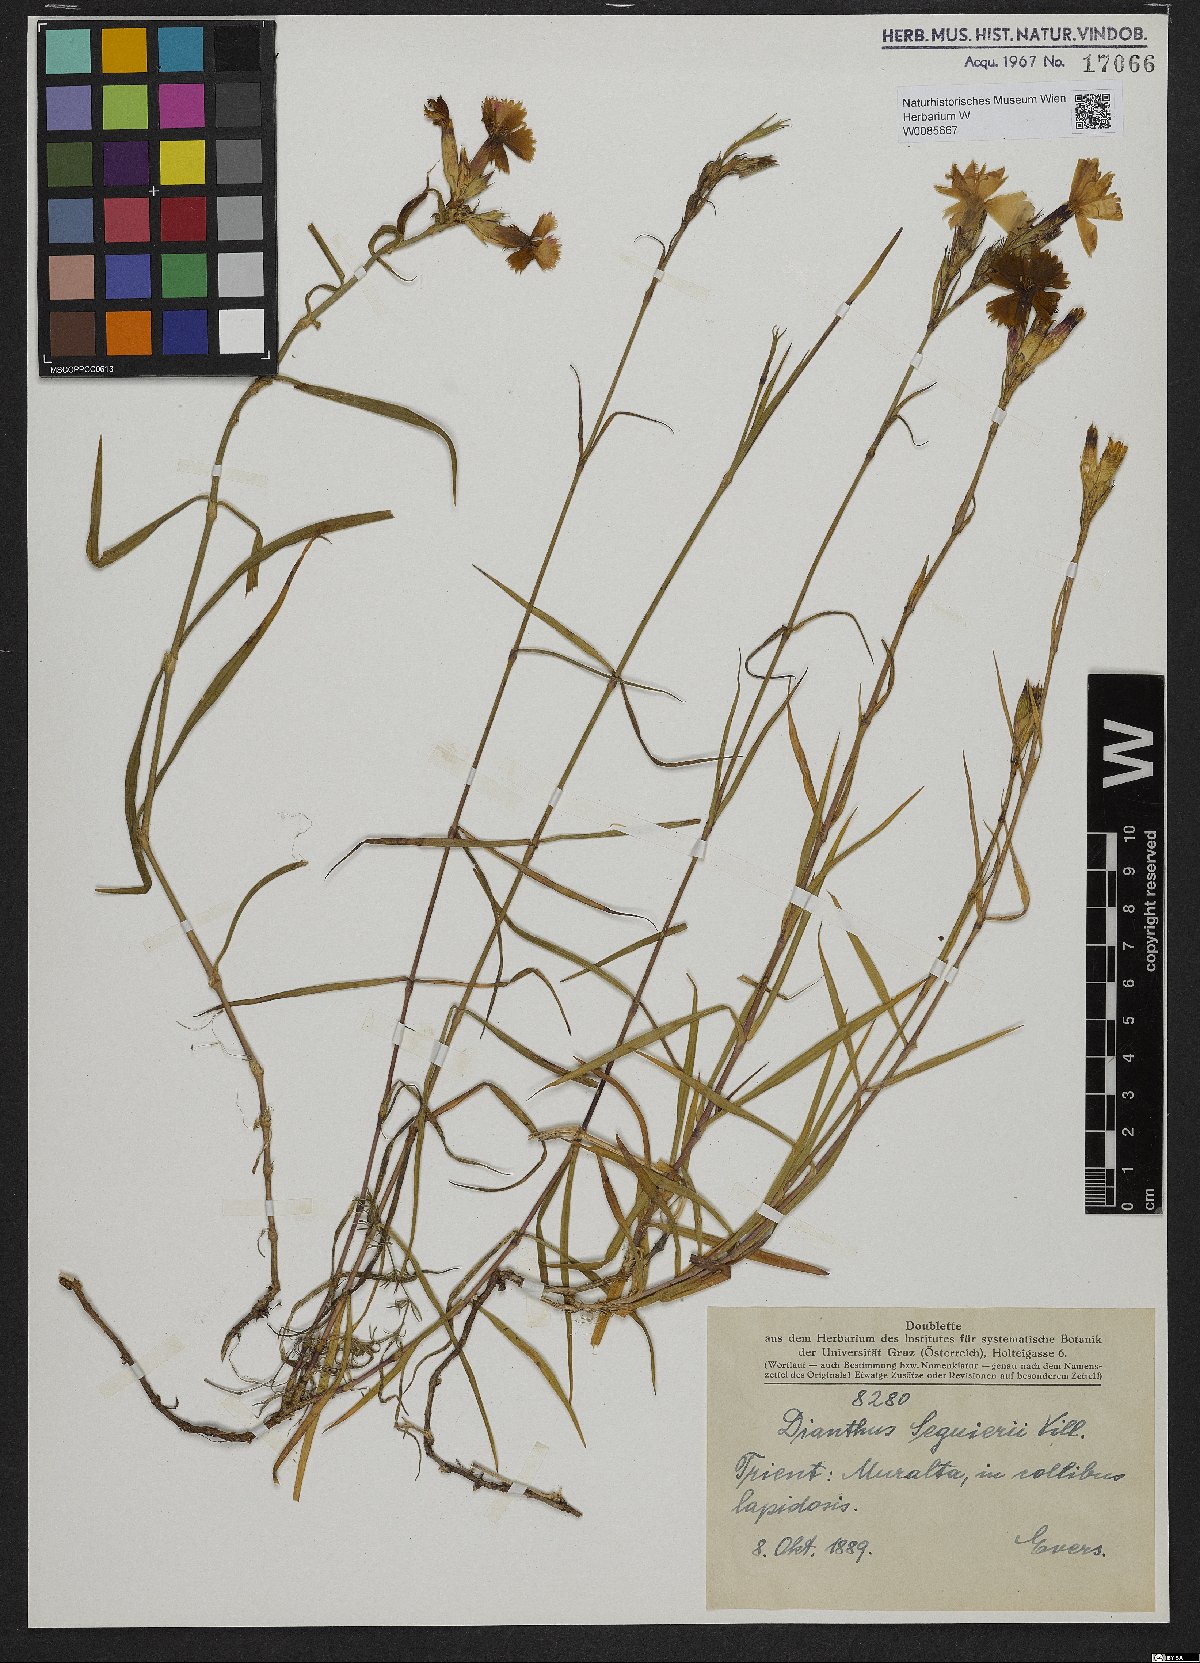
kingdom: Plantae
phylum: Tracheophyta
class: Magnoliopsida
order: Caryophyllales
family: Caryophyllaceae
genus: Dianthus
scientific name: Dianthus seguieri
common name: Ragged pink
